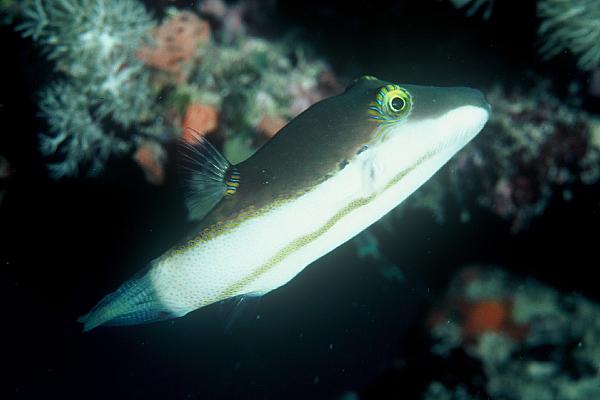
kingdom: Animalia
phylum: Chordata
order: Tetraodontiformes
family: Tetraodontidae
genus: Canthigaster
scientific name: Canthigaster smithae
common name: Bicolored toby
